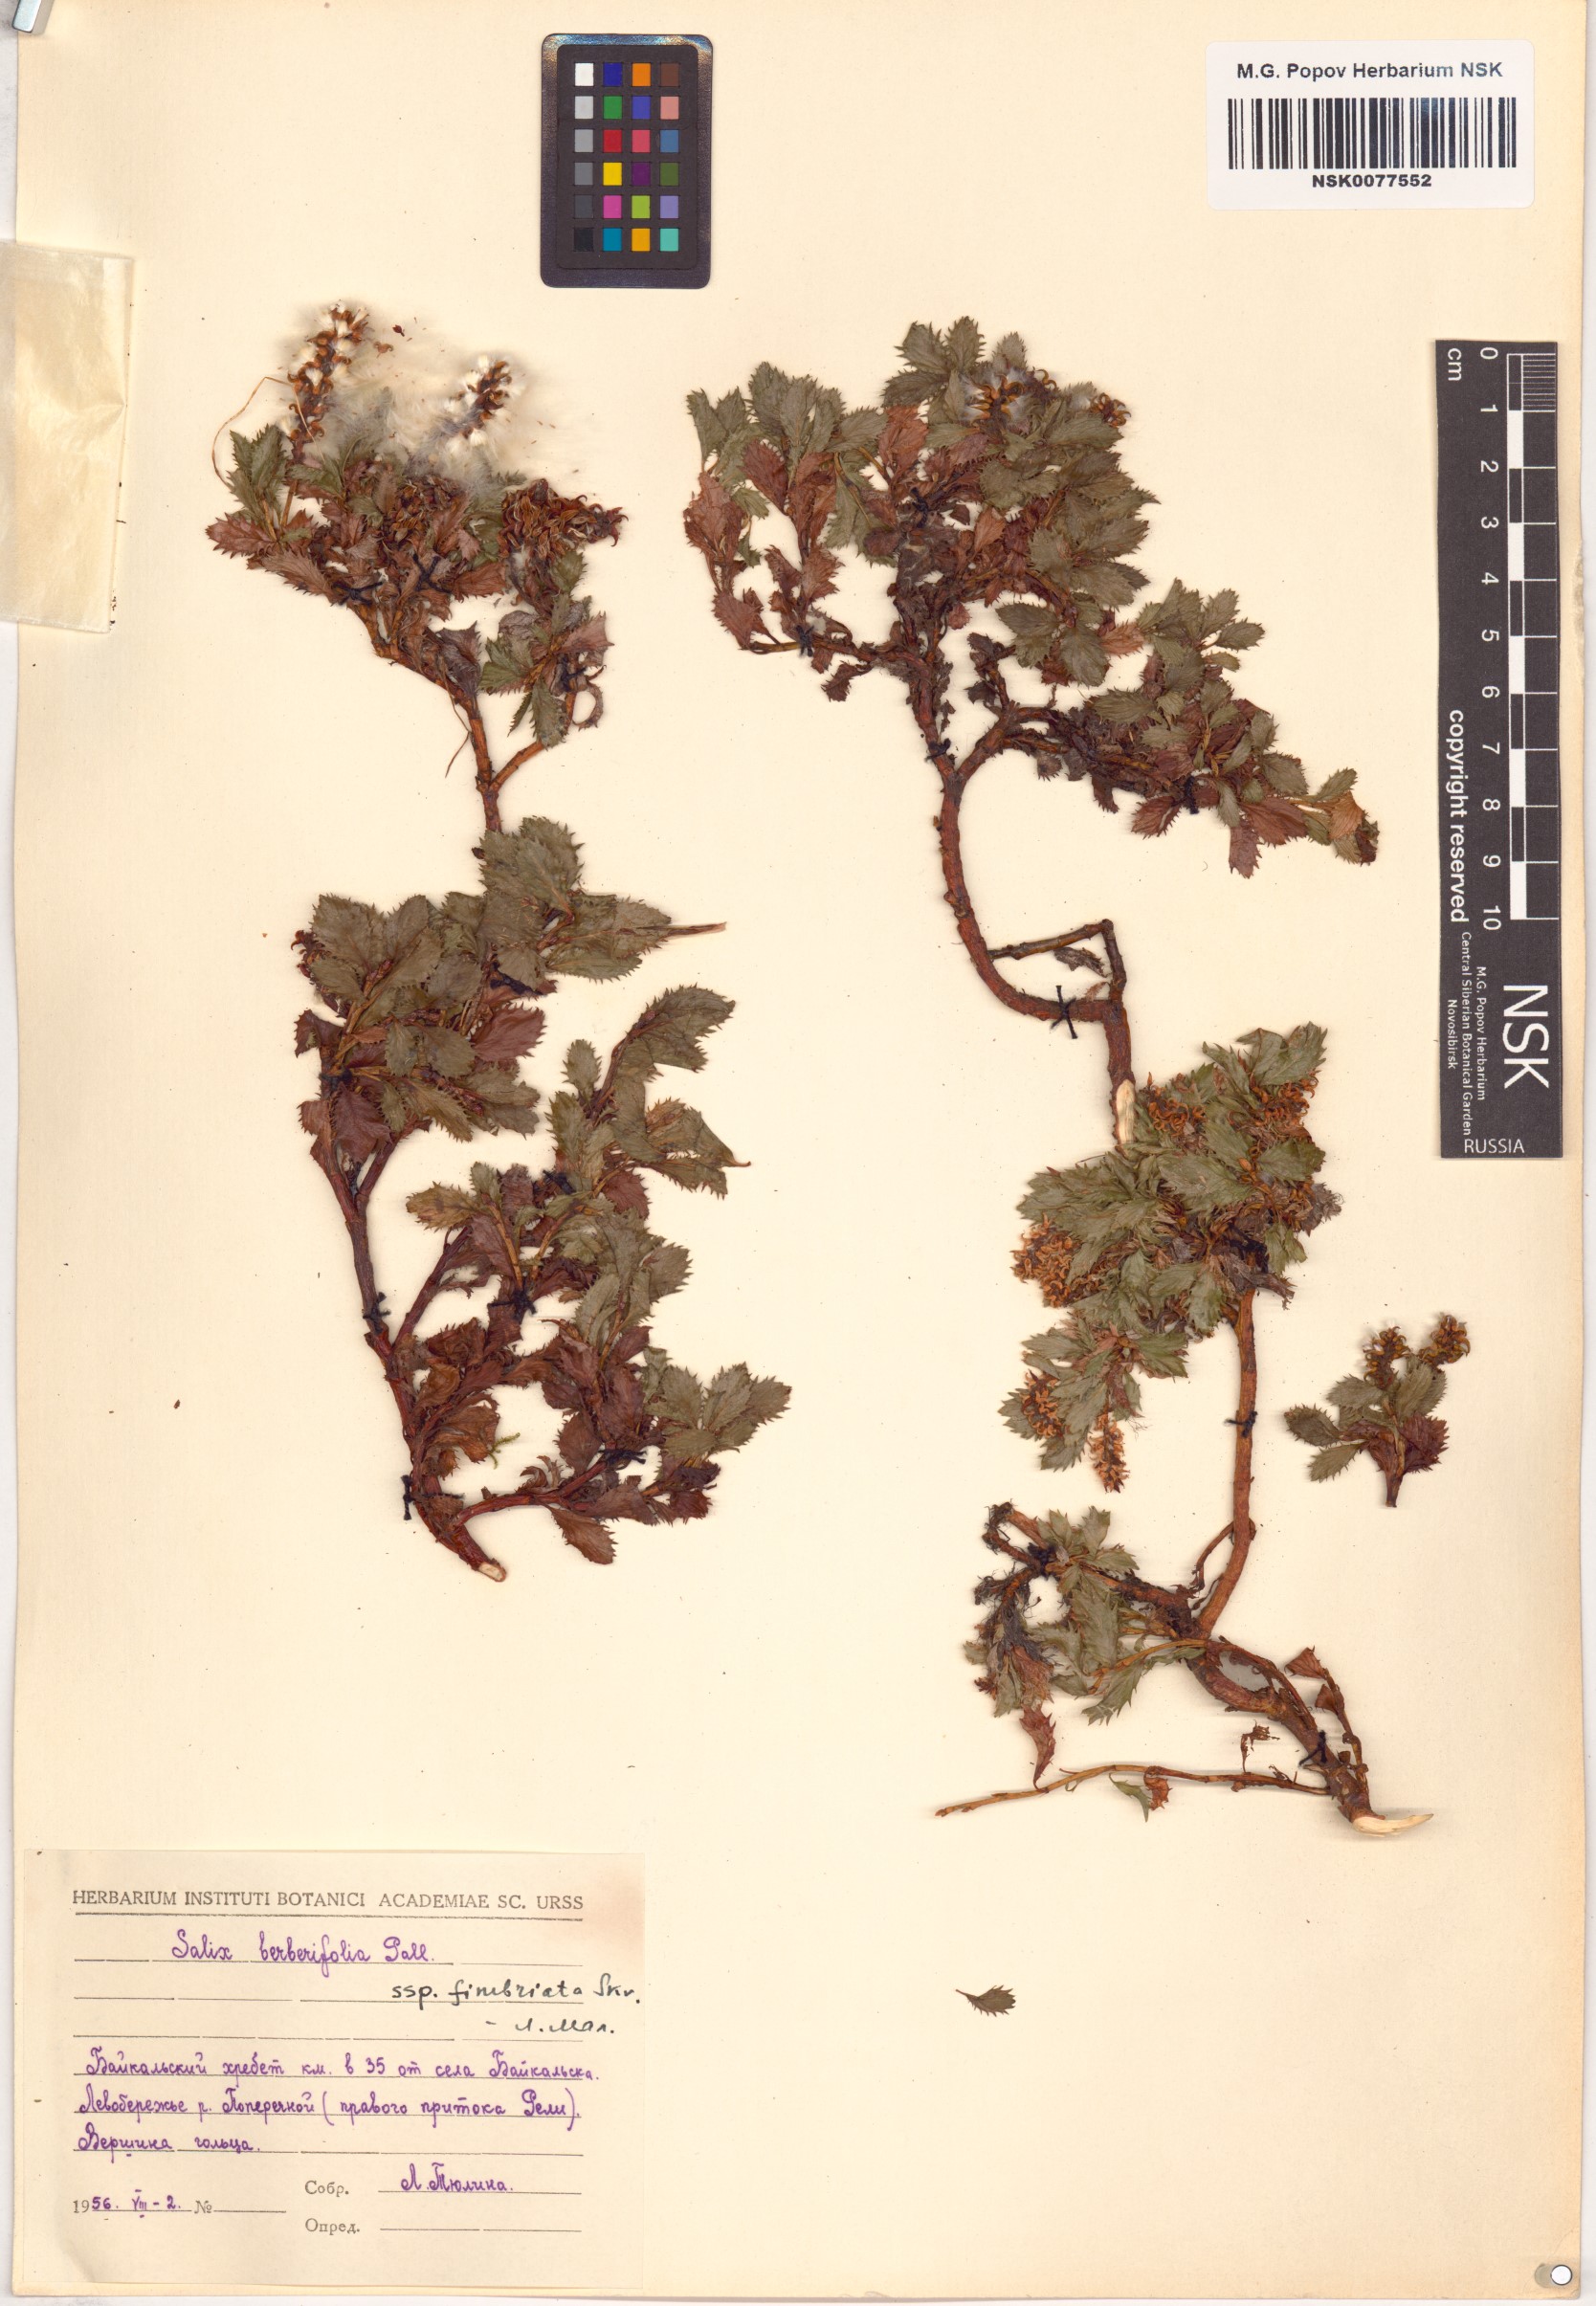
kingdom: Plantae
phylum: Tracheophyta
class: Magnoliopsida
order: Malpighiales
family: Salicaceae
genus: Salix
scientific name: Salix berberifolia
